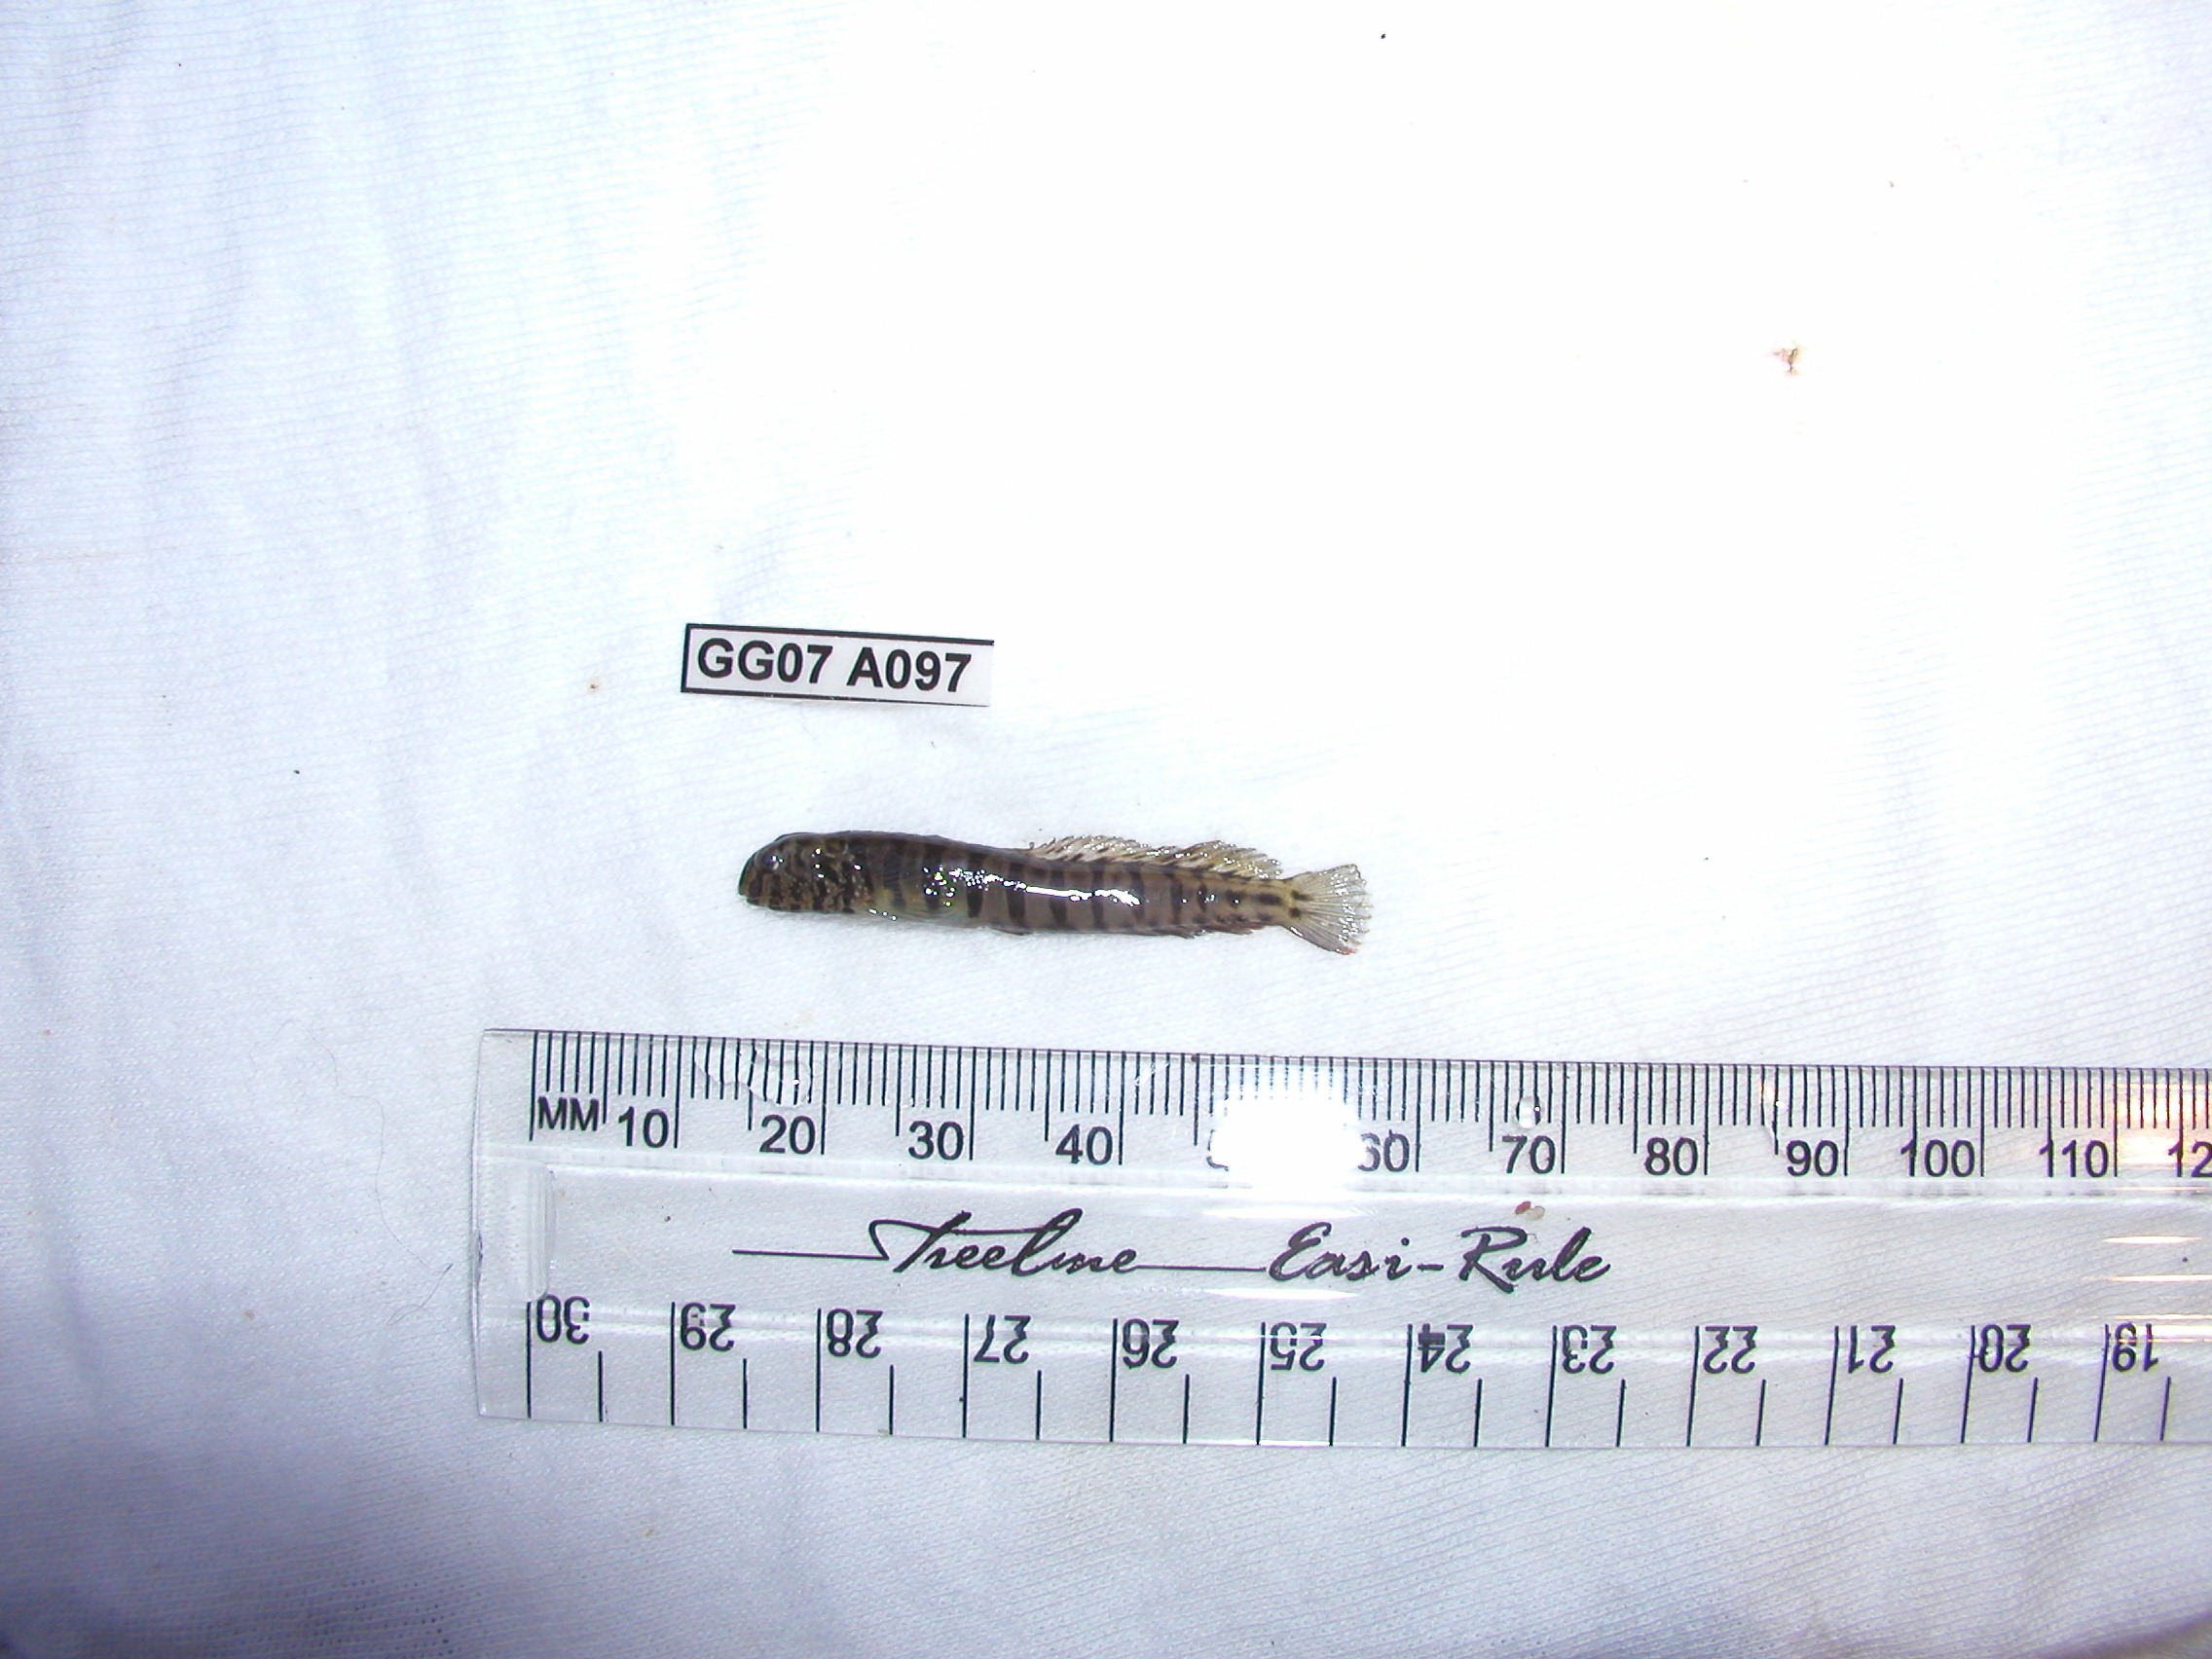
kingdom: Animalia
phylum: Chordata
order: Perciformes
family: Blenniidae
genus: Omobranchus
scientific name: Omobranchus banditus
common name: Bandit blenny
